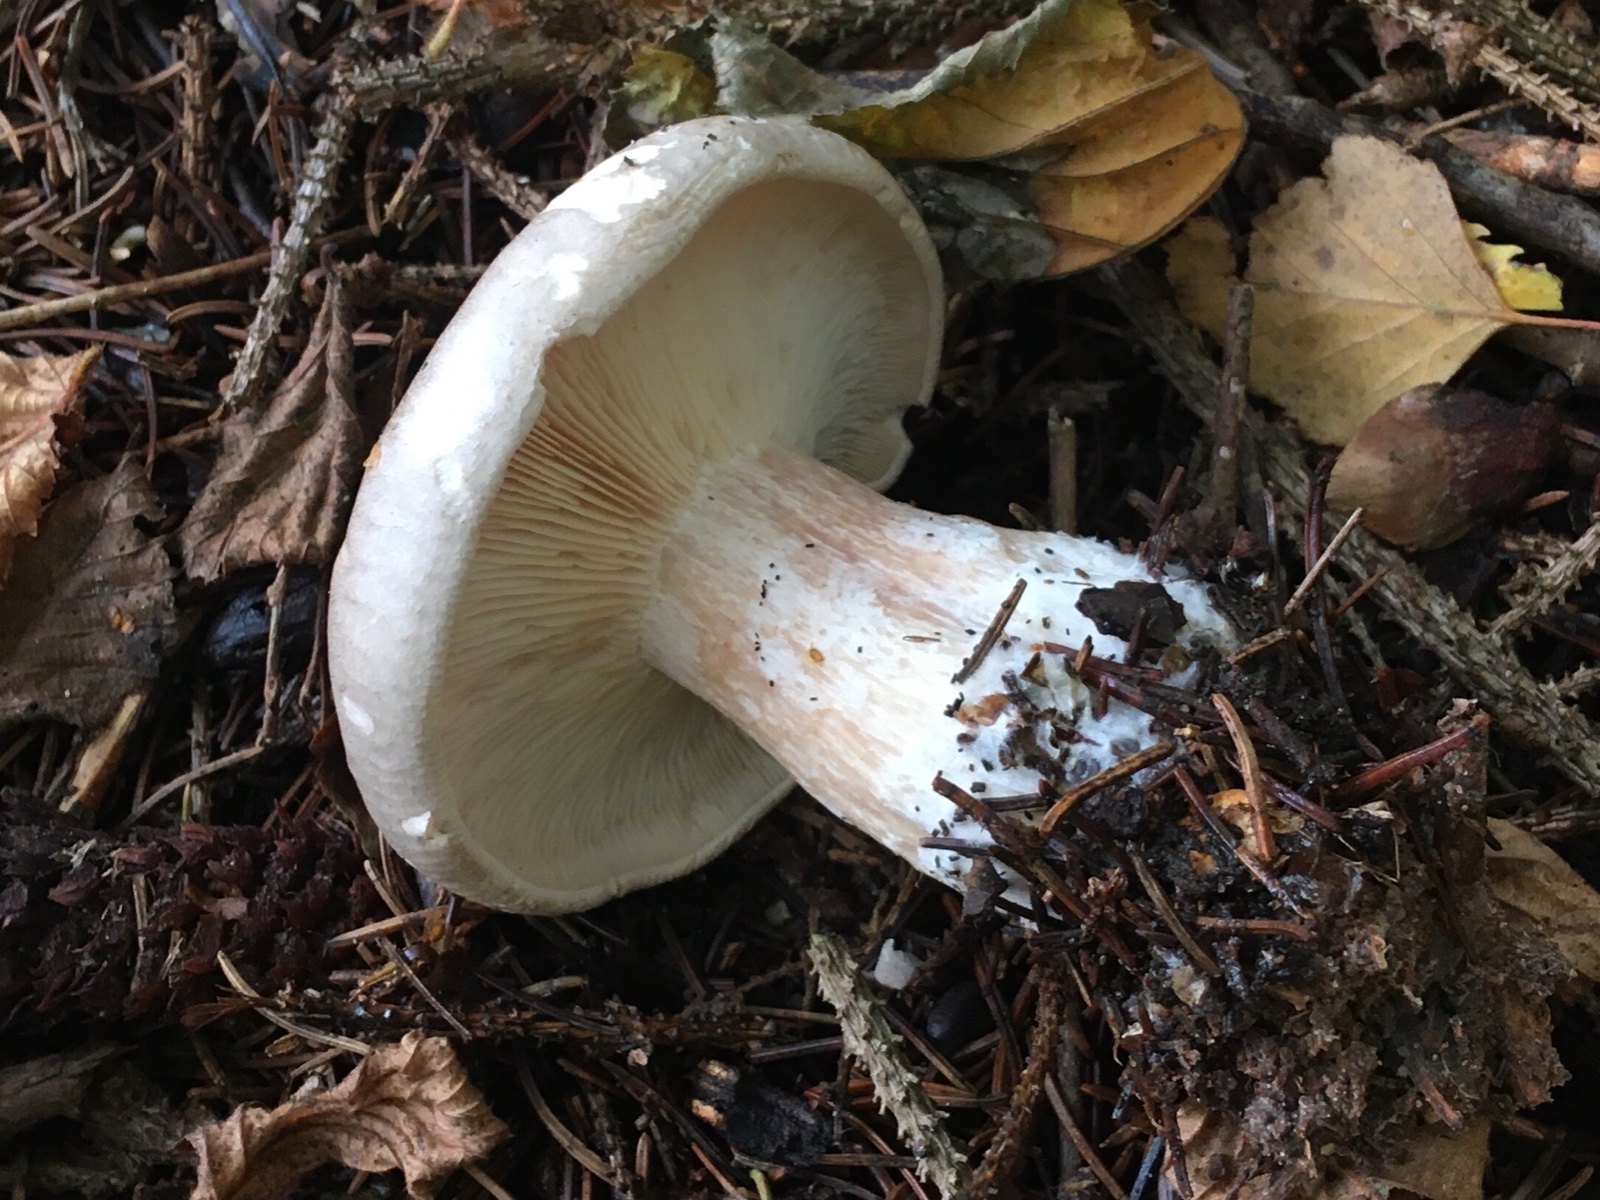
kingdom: Fungi
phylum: Basidiomycota
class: Agaricomycetes
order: Agaricales
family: Tricholomataceae
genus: Clitocybe
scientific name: Clitocybe nebularis
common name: tåge-tragthat
